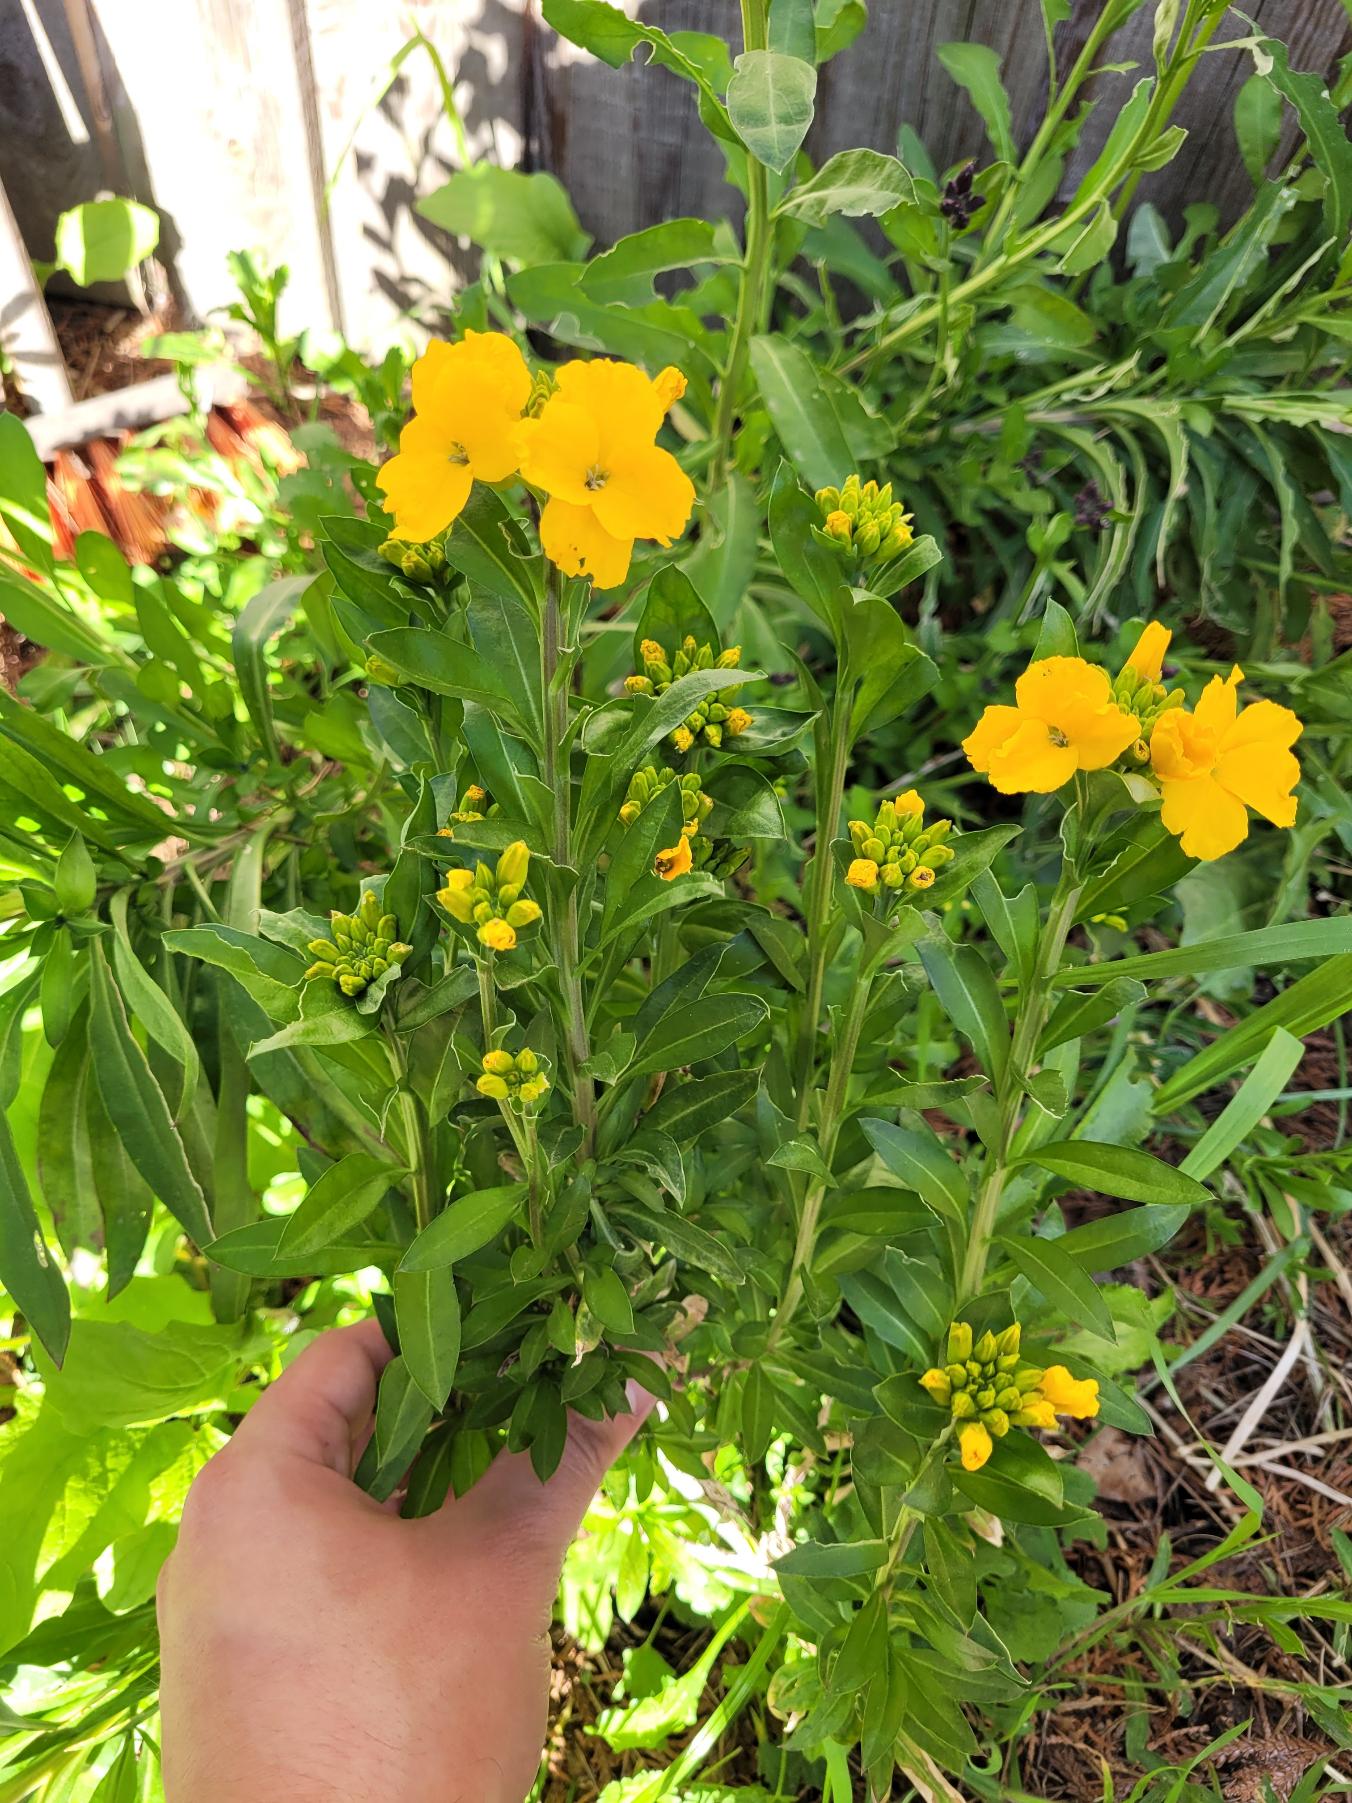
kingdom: Plantae
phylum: Tracheophyta
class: Magnoliopsida
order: Brassicales
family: Brassicaceae
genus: Erysimum
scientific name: Erysimum cheiri
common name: Gyldenlak
